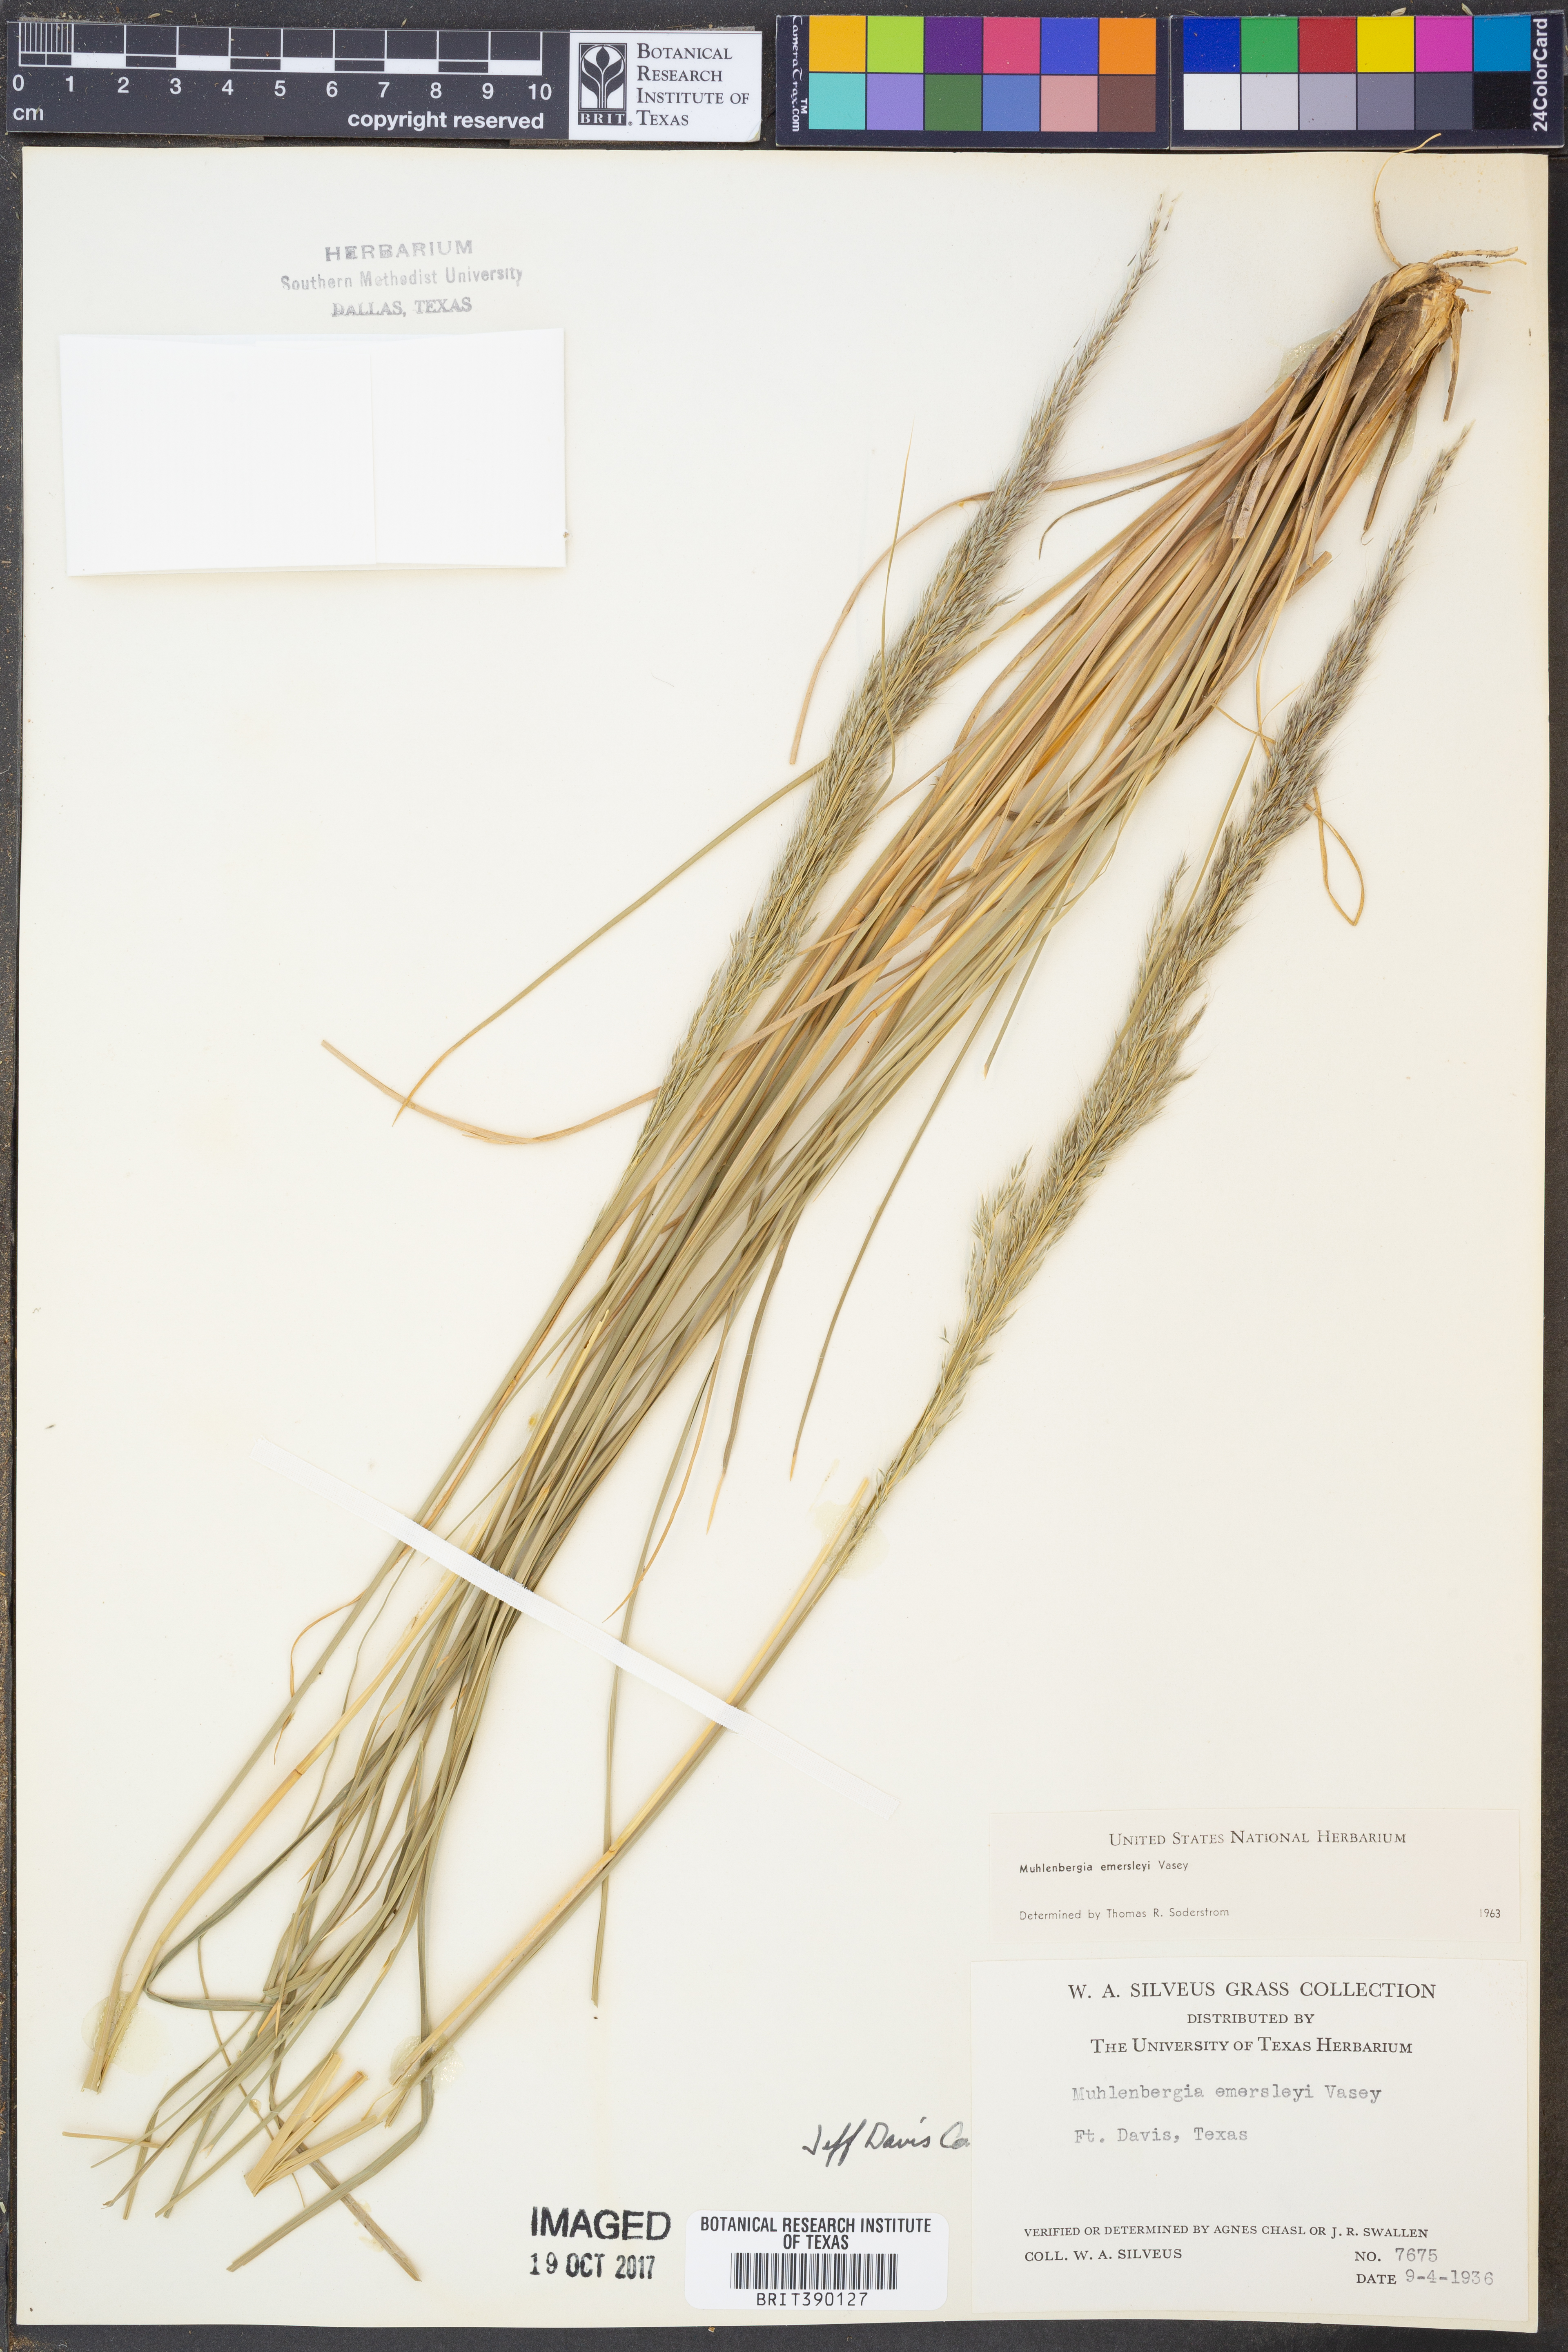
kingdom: Plantae
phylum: Tracheophyta
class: Liliopsida
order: Poales
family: Poaceae
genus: Muhlenbergia
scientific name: Muhlenbergia emersleyi
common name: Bull grass
